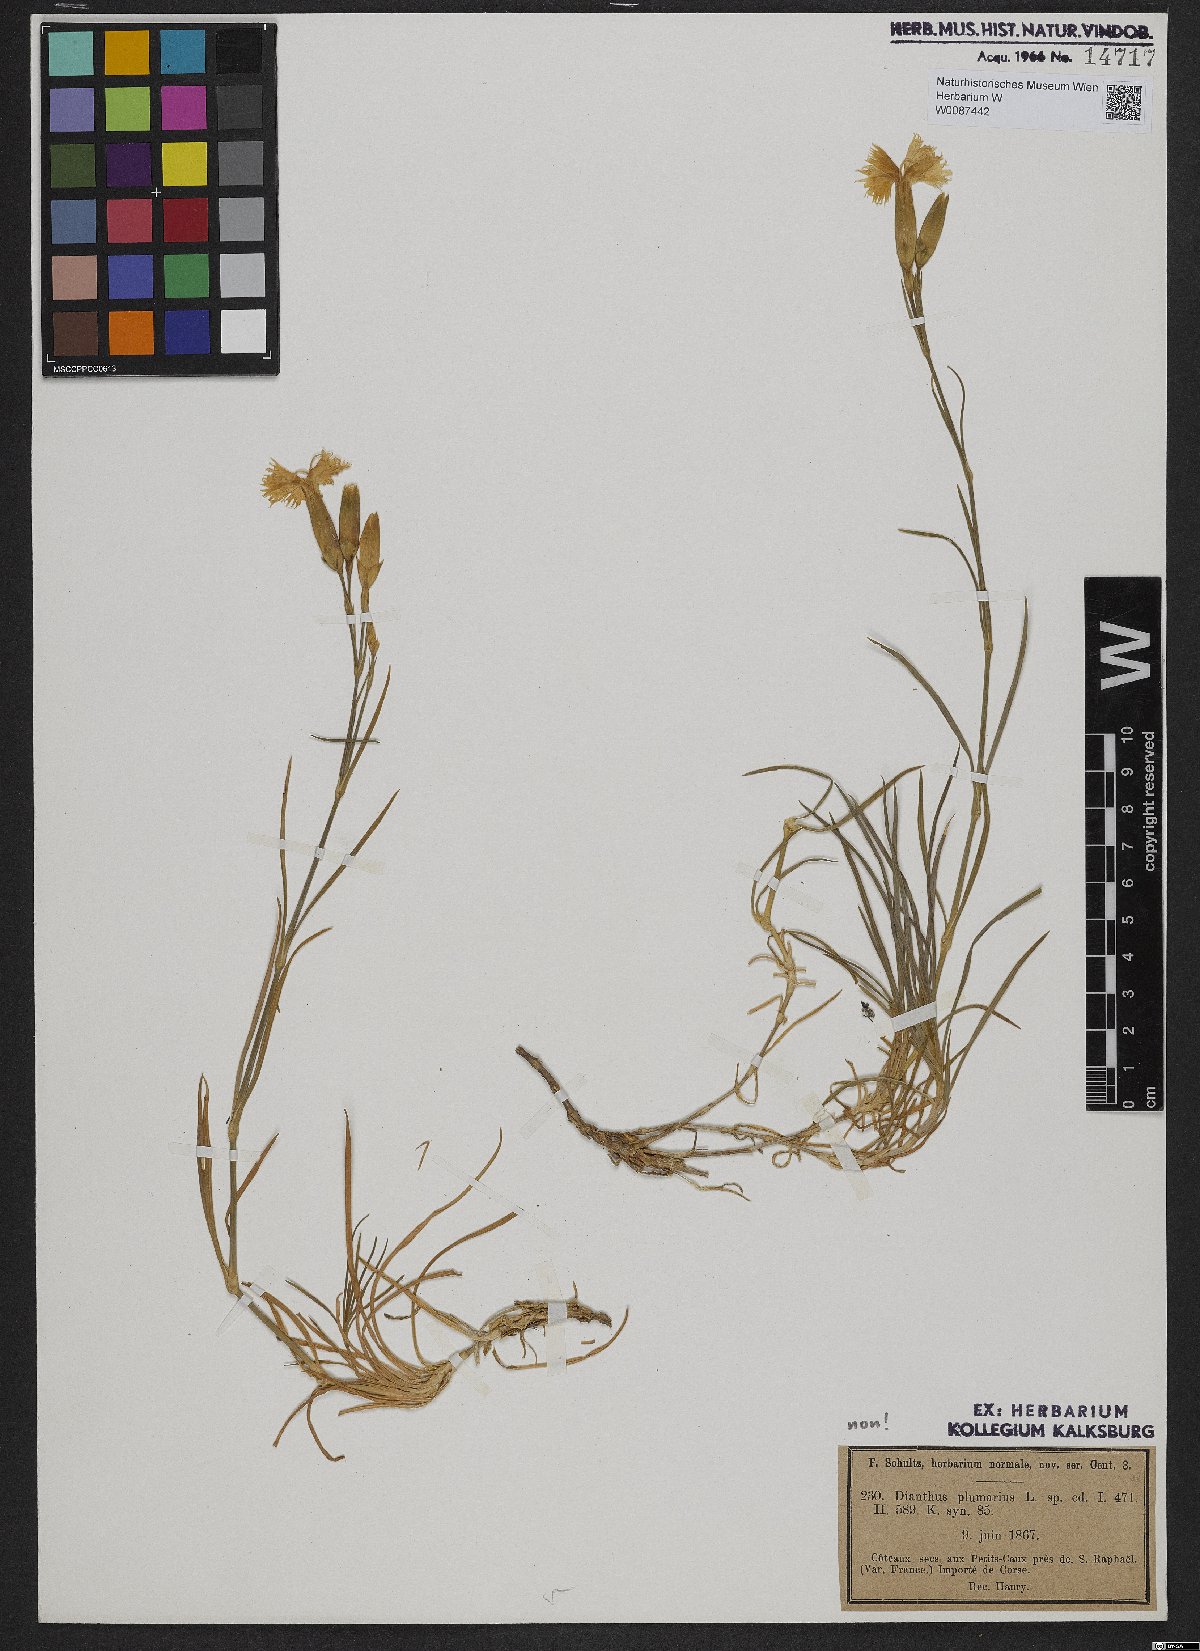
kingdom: Plantae
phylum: Tracheophyta
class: Magnoliopsida
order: Caryophyllales
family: Caryophyllaceae
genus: Dianthus
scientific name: Dianthus caryophyllus
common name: Clove pink
